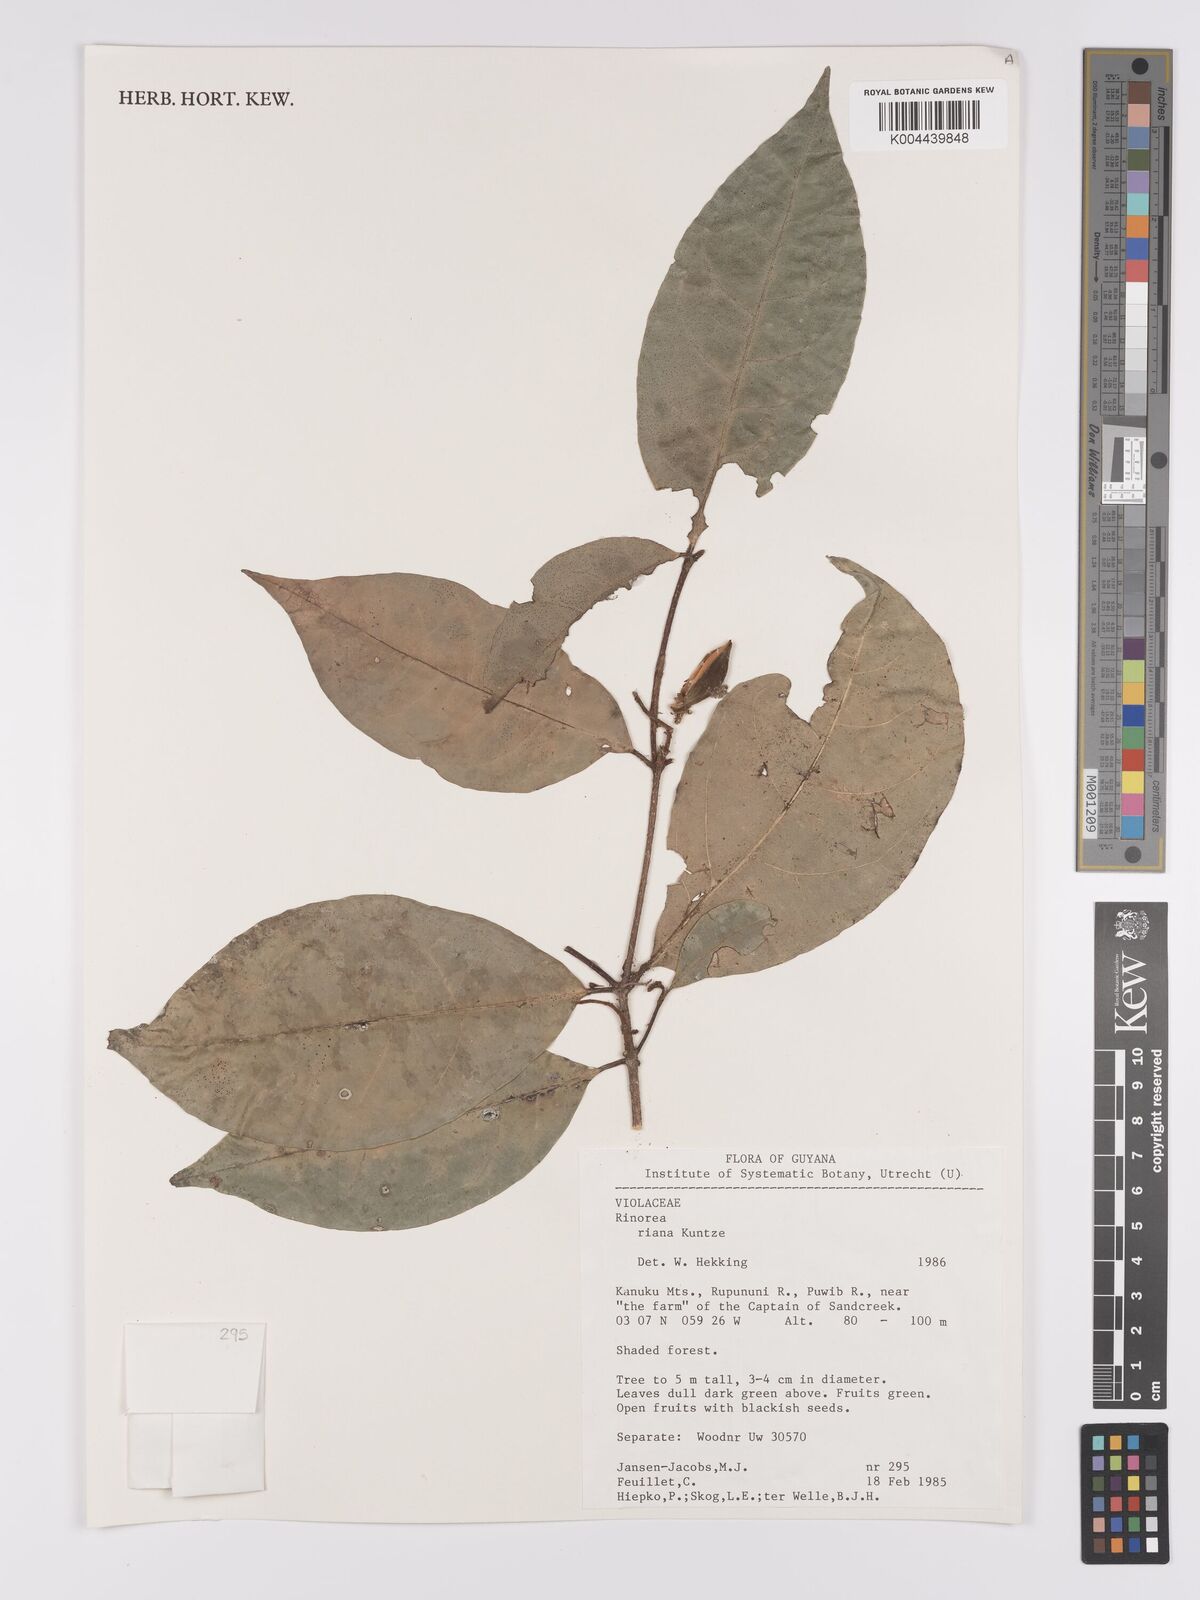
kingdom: Plantae
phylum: Tracheophyta
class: Magnoliopsida
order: Malpighiales
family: Violaceae
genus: Rinorea
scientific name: Rinorea riana
